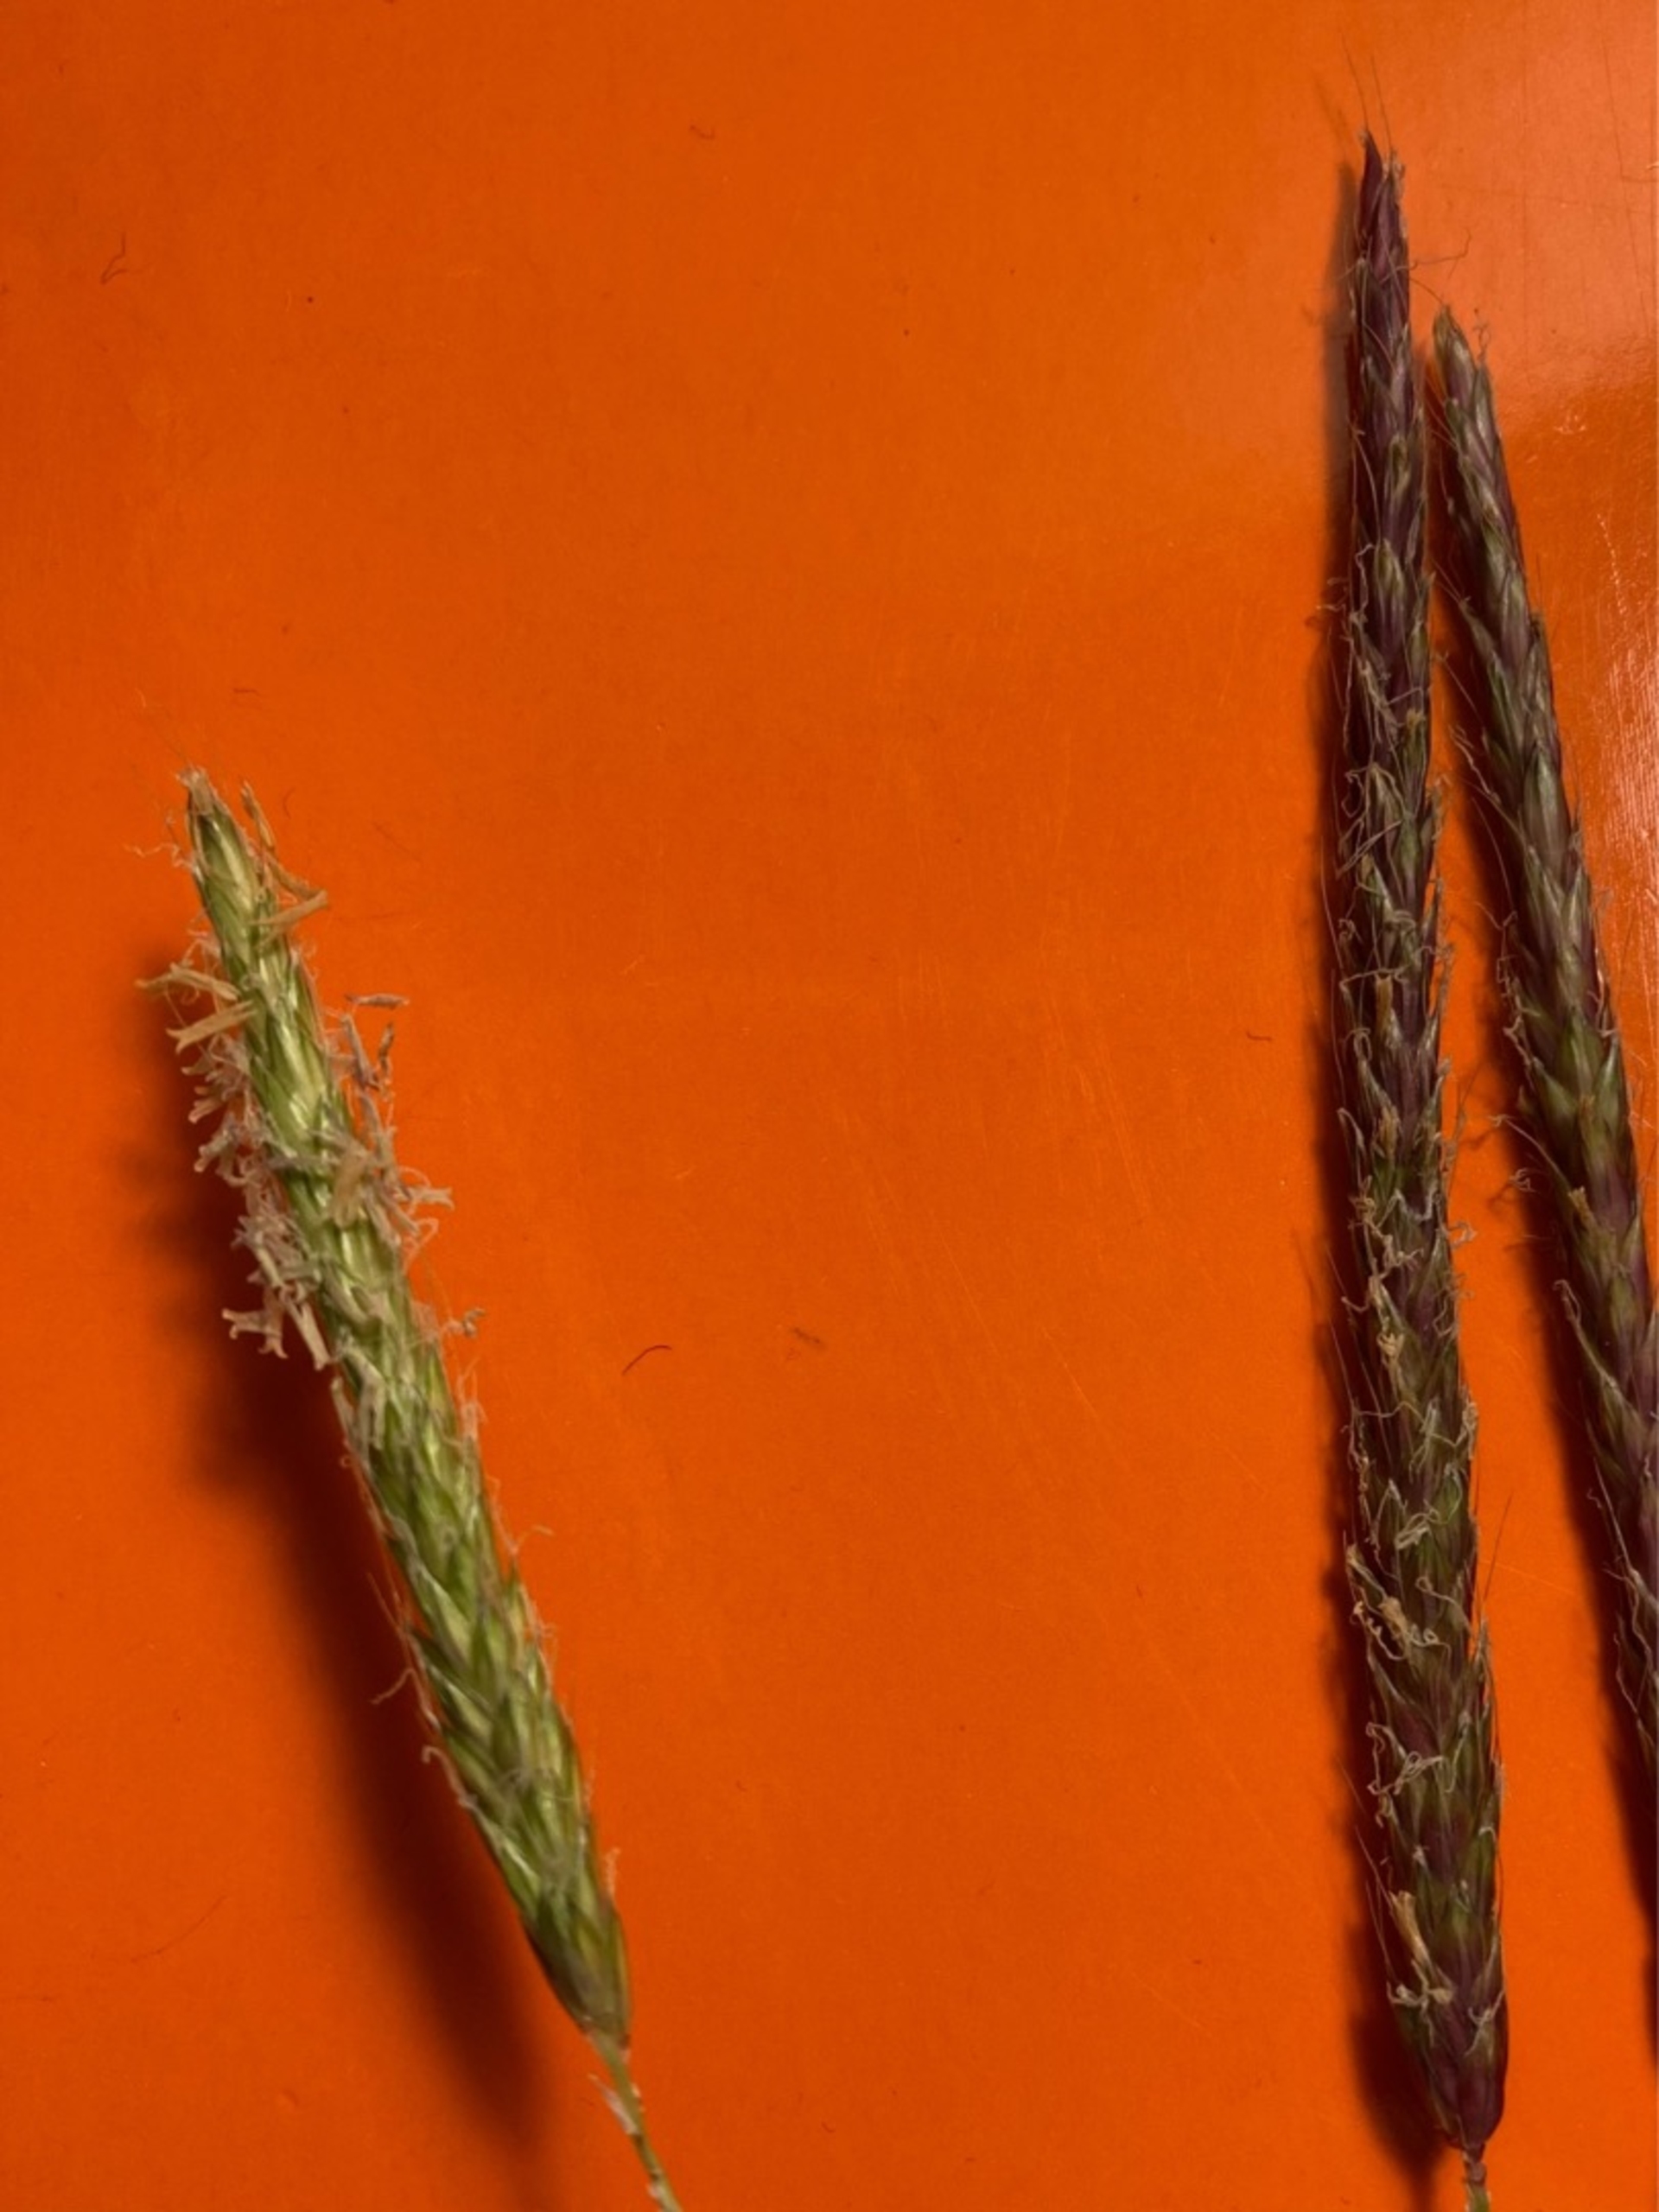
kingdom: Plantae
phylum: Tracheophyta
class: Liliopsida
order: Poales
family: Poaceae
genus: Alopecurus
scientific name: Alopecurus myosuroides
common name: Ager-rævehale
